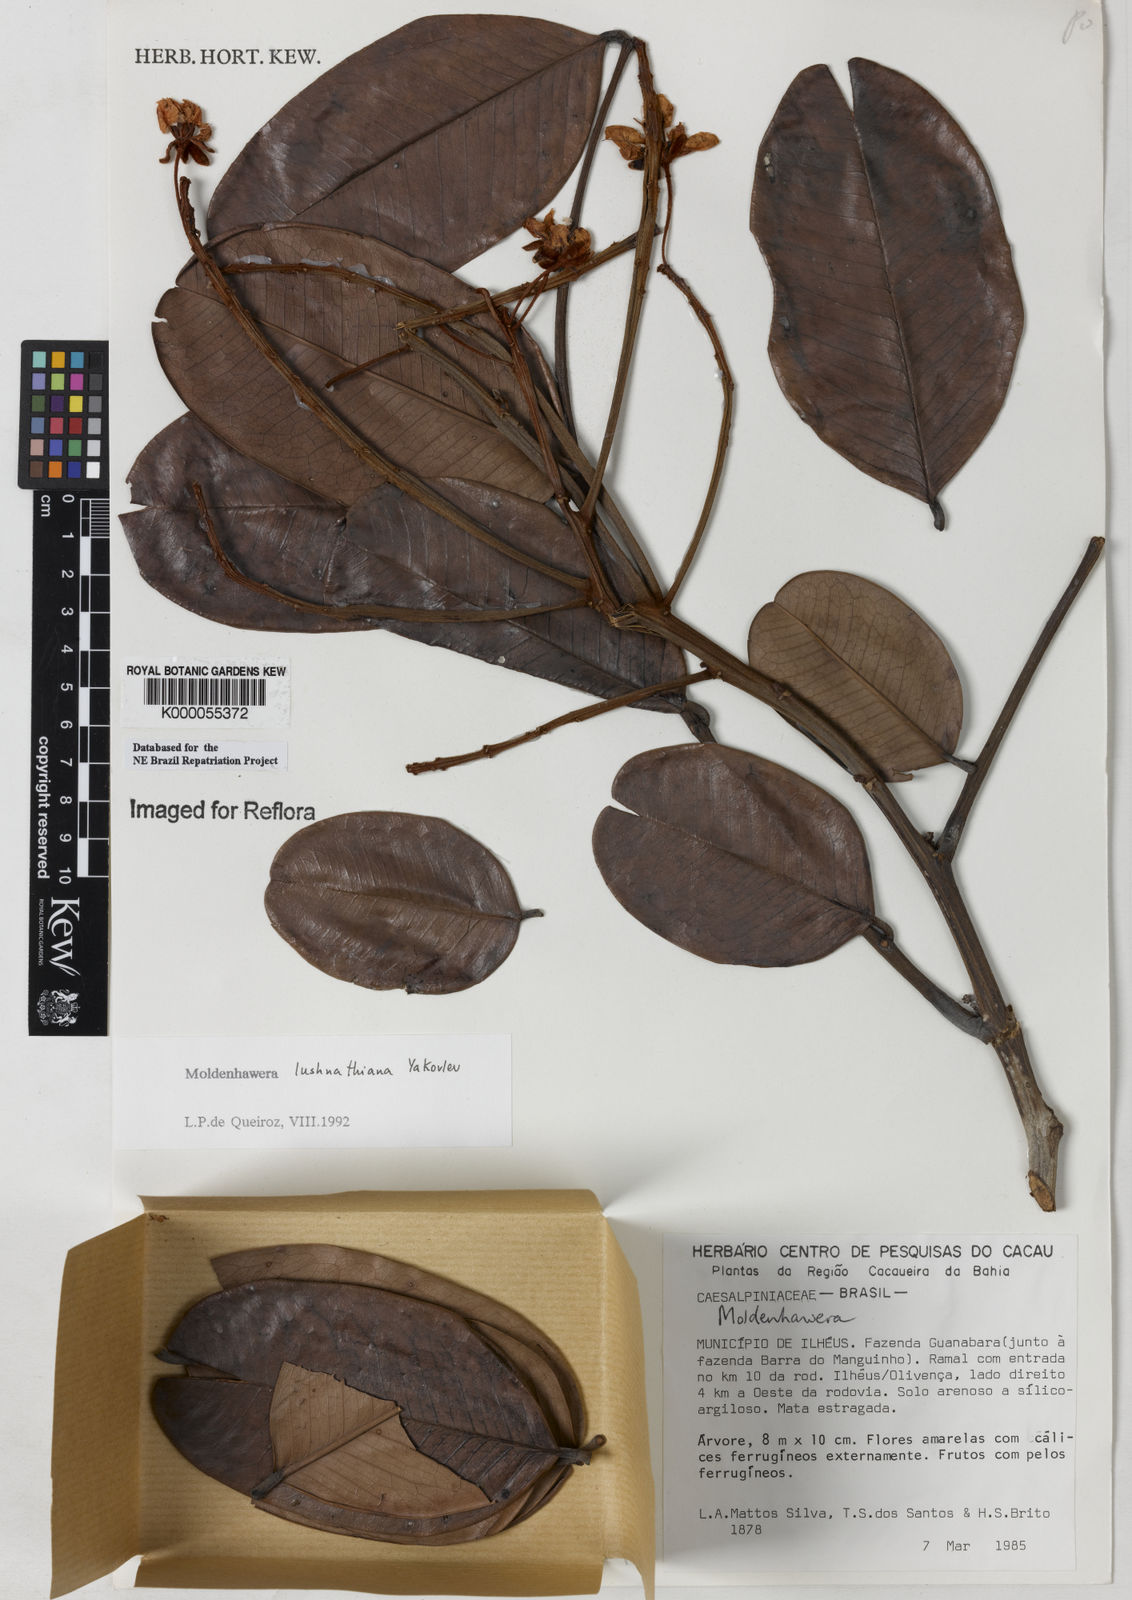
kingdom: Plantae
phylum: Tracheophyta
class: Magnoliopsida
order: Fabales
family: Fabaceae
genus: Moldenhawera
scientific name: Moldenhawera lushnathiana
